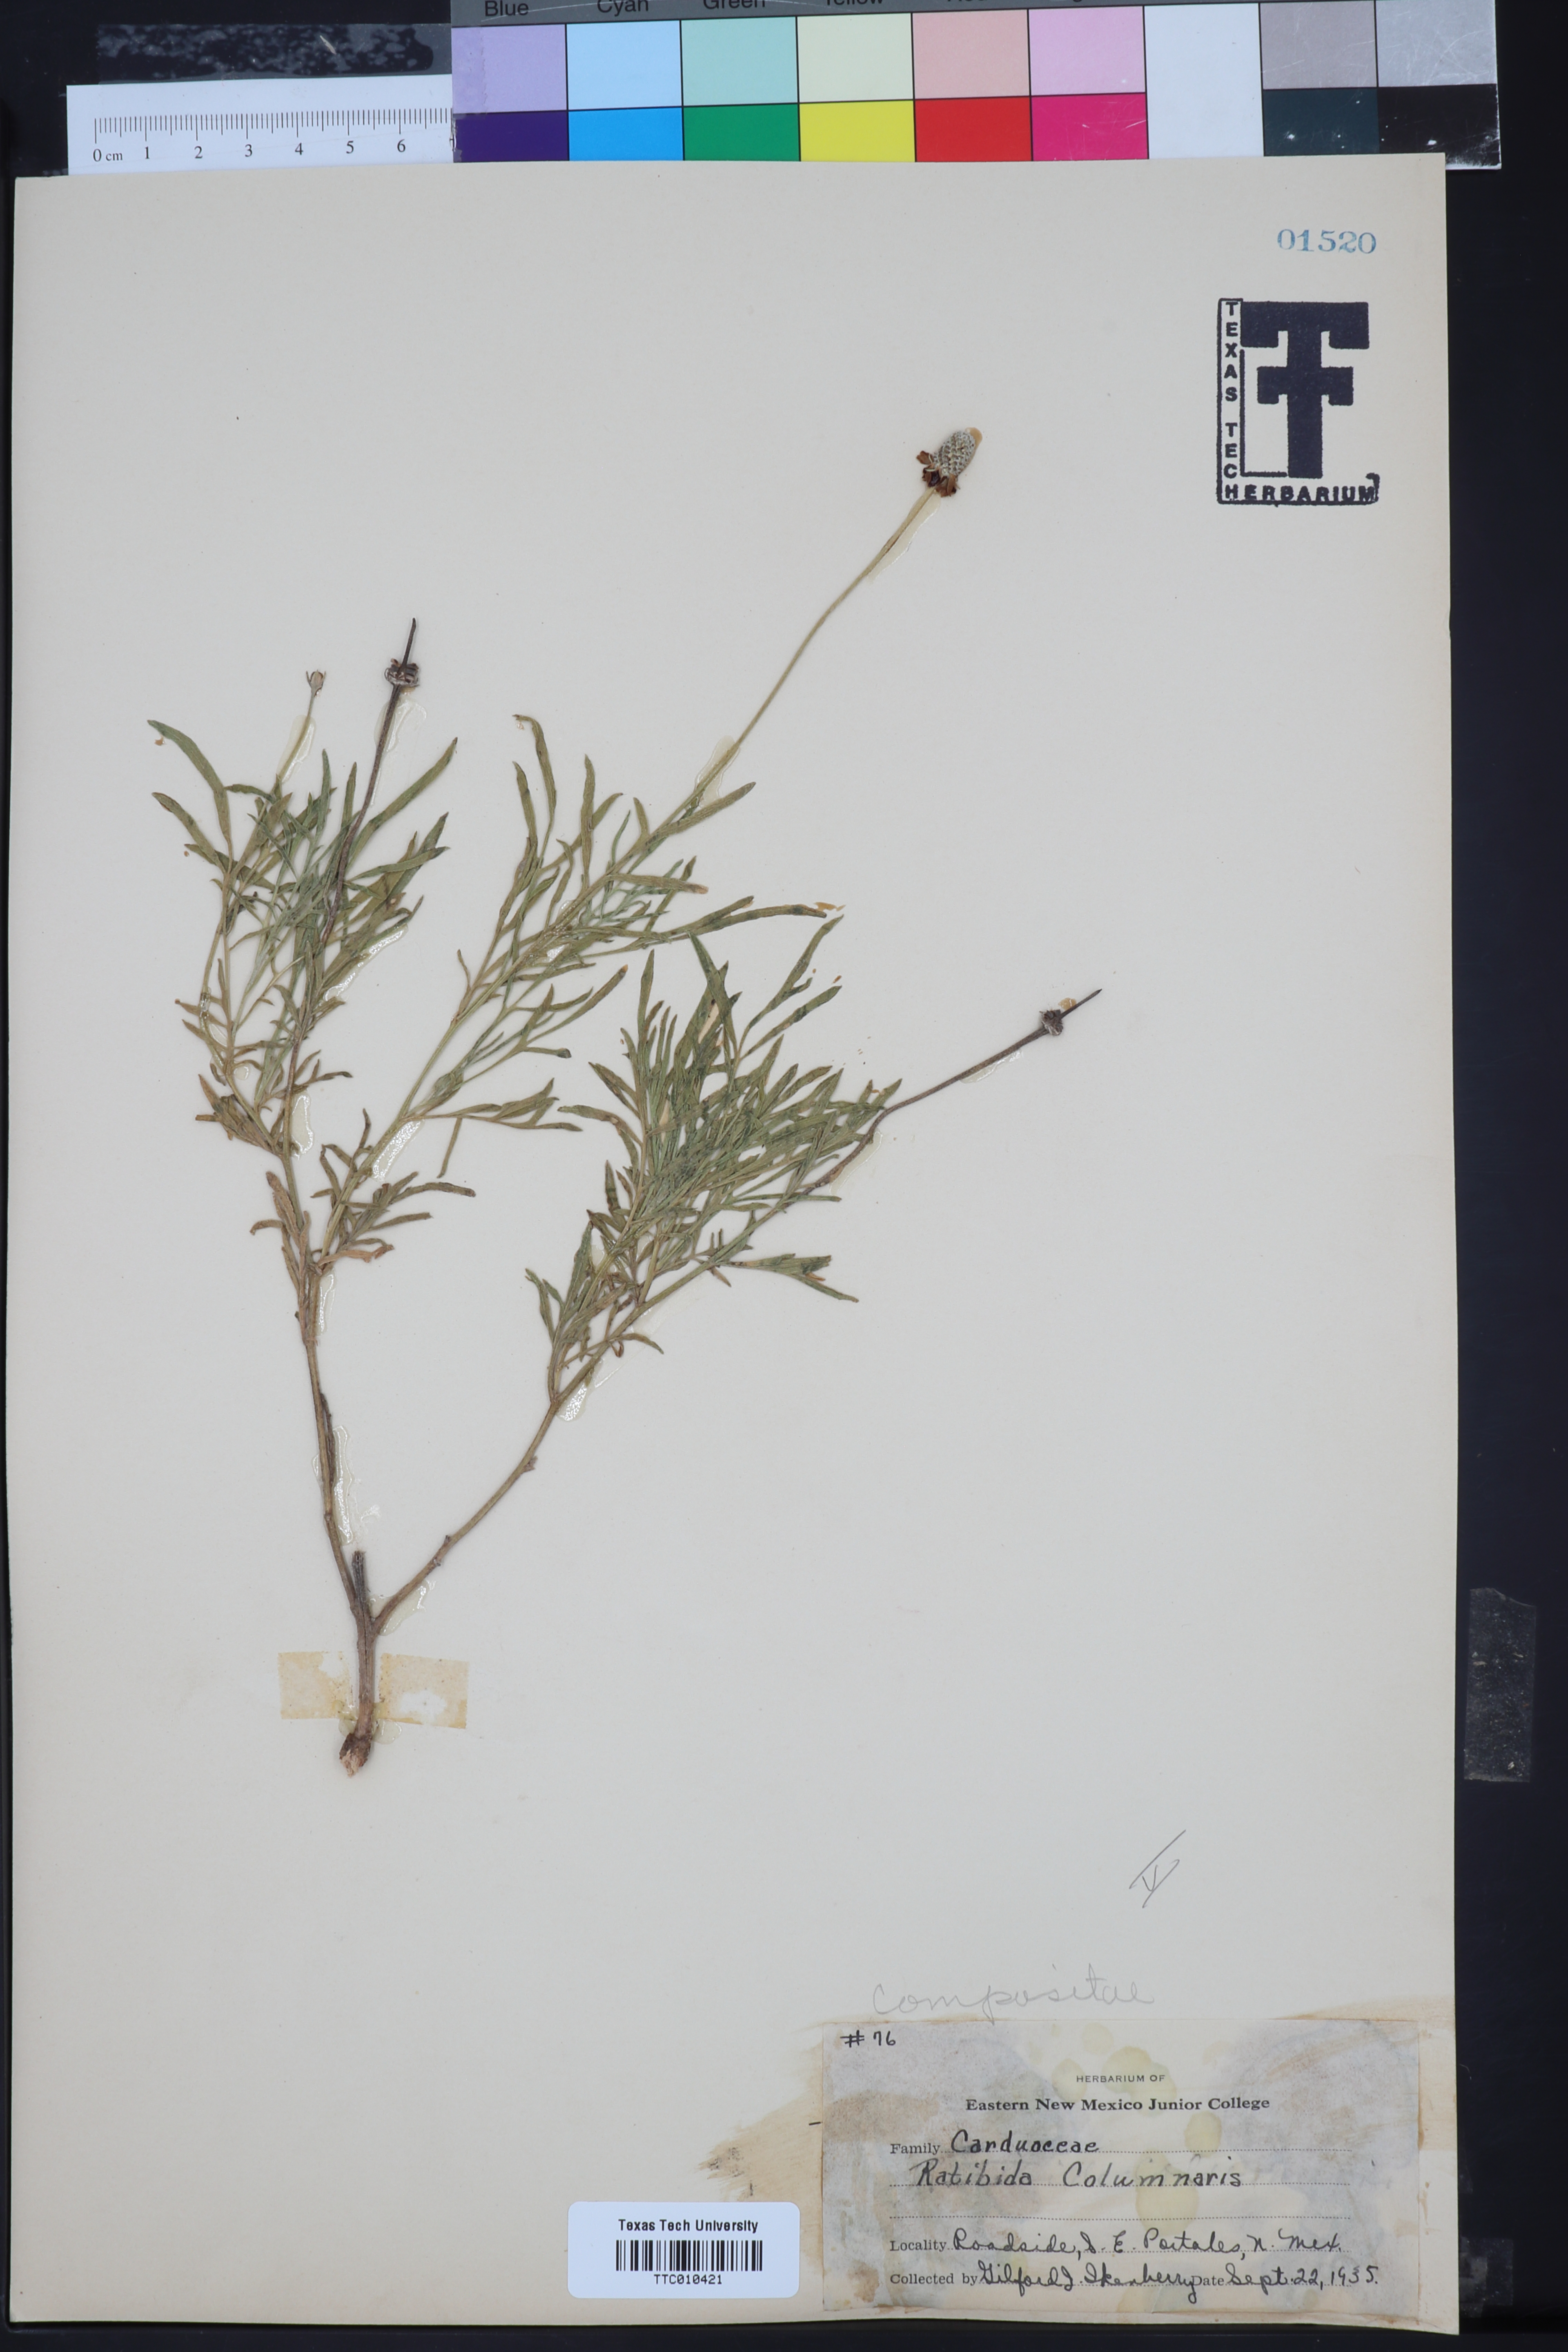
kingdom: Plantae
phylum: Tracheophyta
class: Magnoliopsida
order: Asterales
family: Asteraceae
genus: Ratibida
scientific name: Ratibida columnifera
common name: Prairie coneflower
